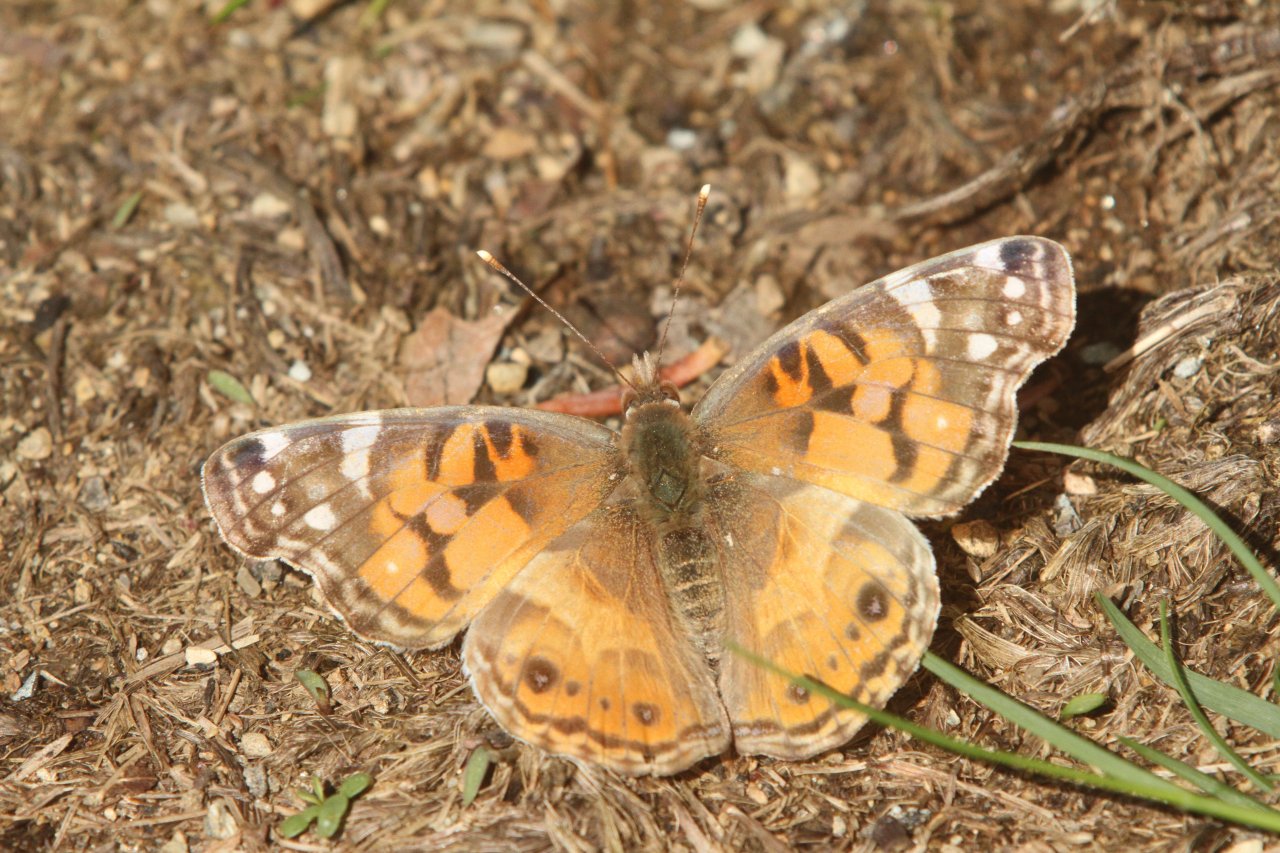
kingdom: Animalia
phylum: Arthropoda
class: Insecta
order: Lepidoptera
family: Nymphalidae
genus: Vanessa
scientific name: Vanessa virginiensis
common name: American Lady
